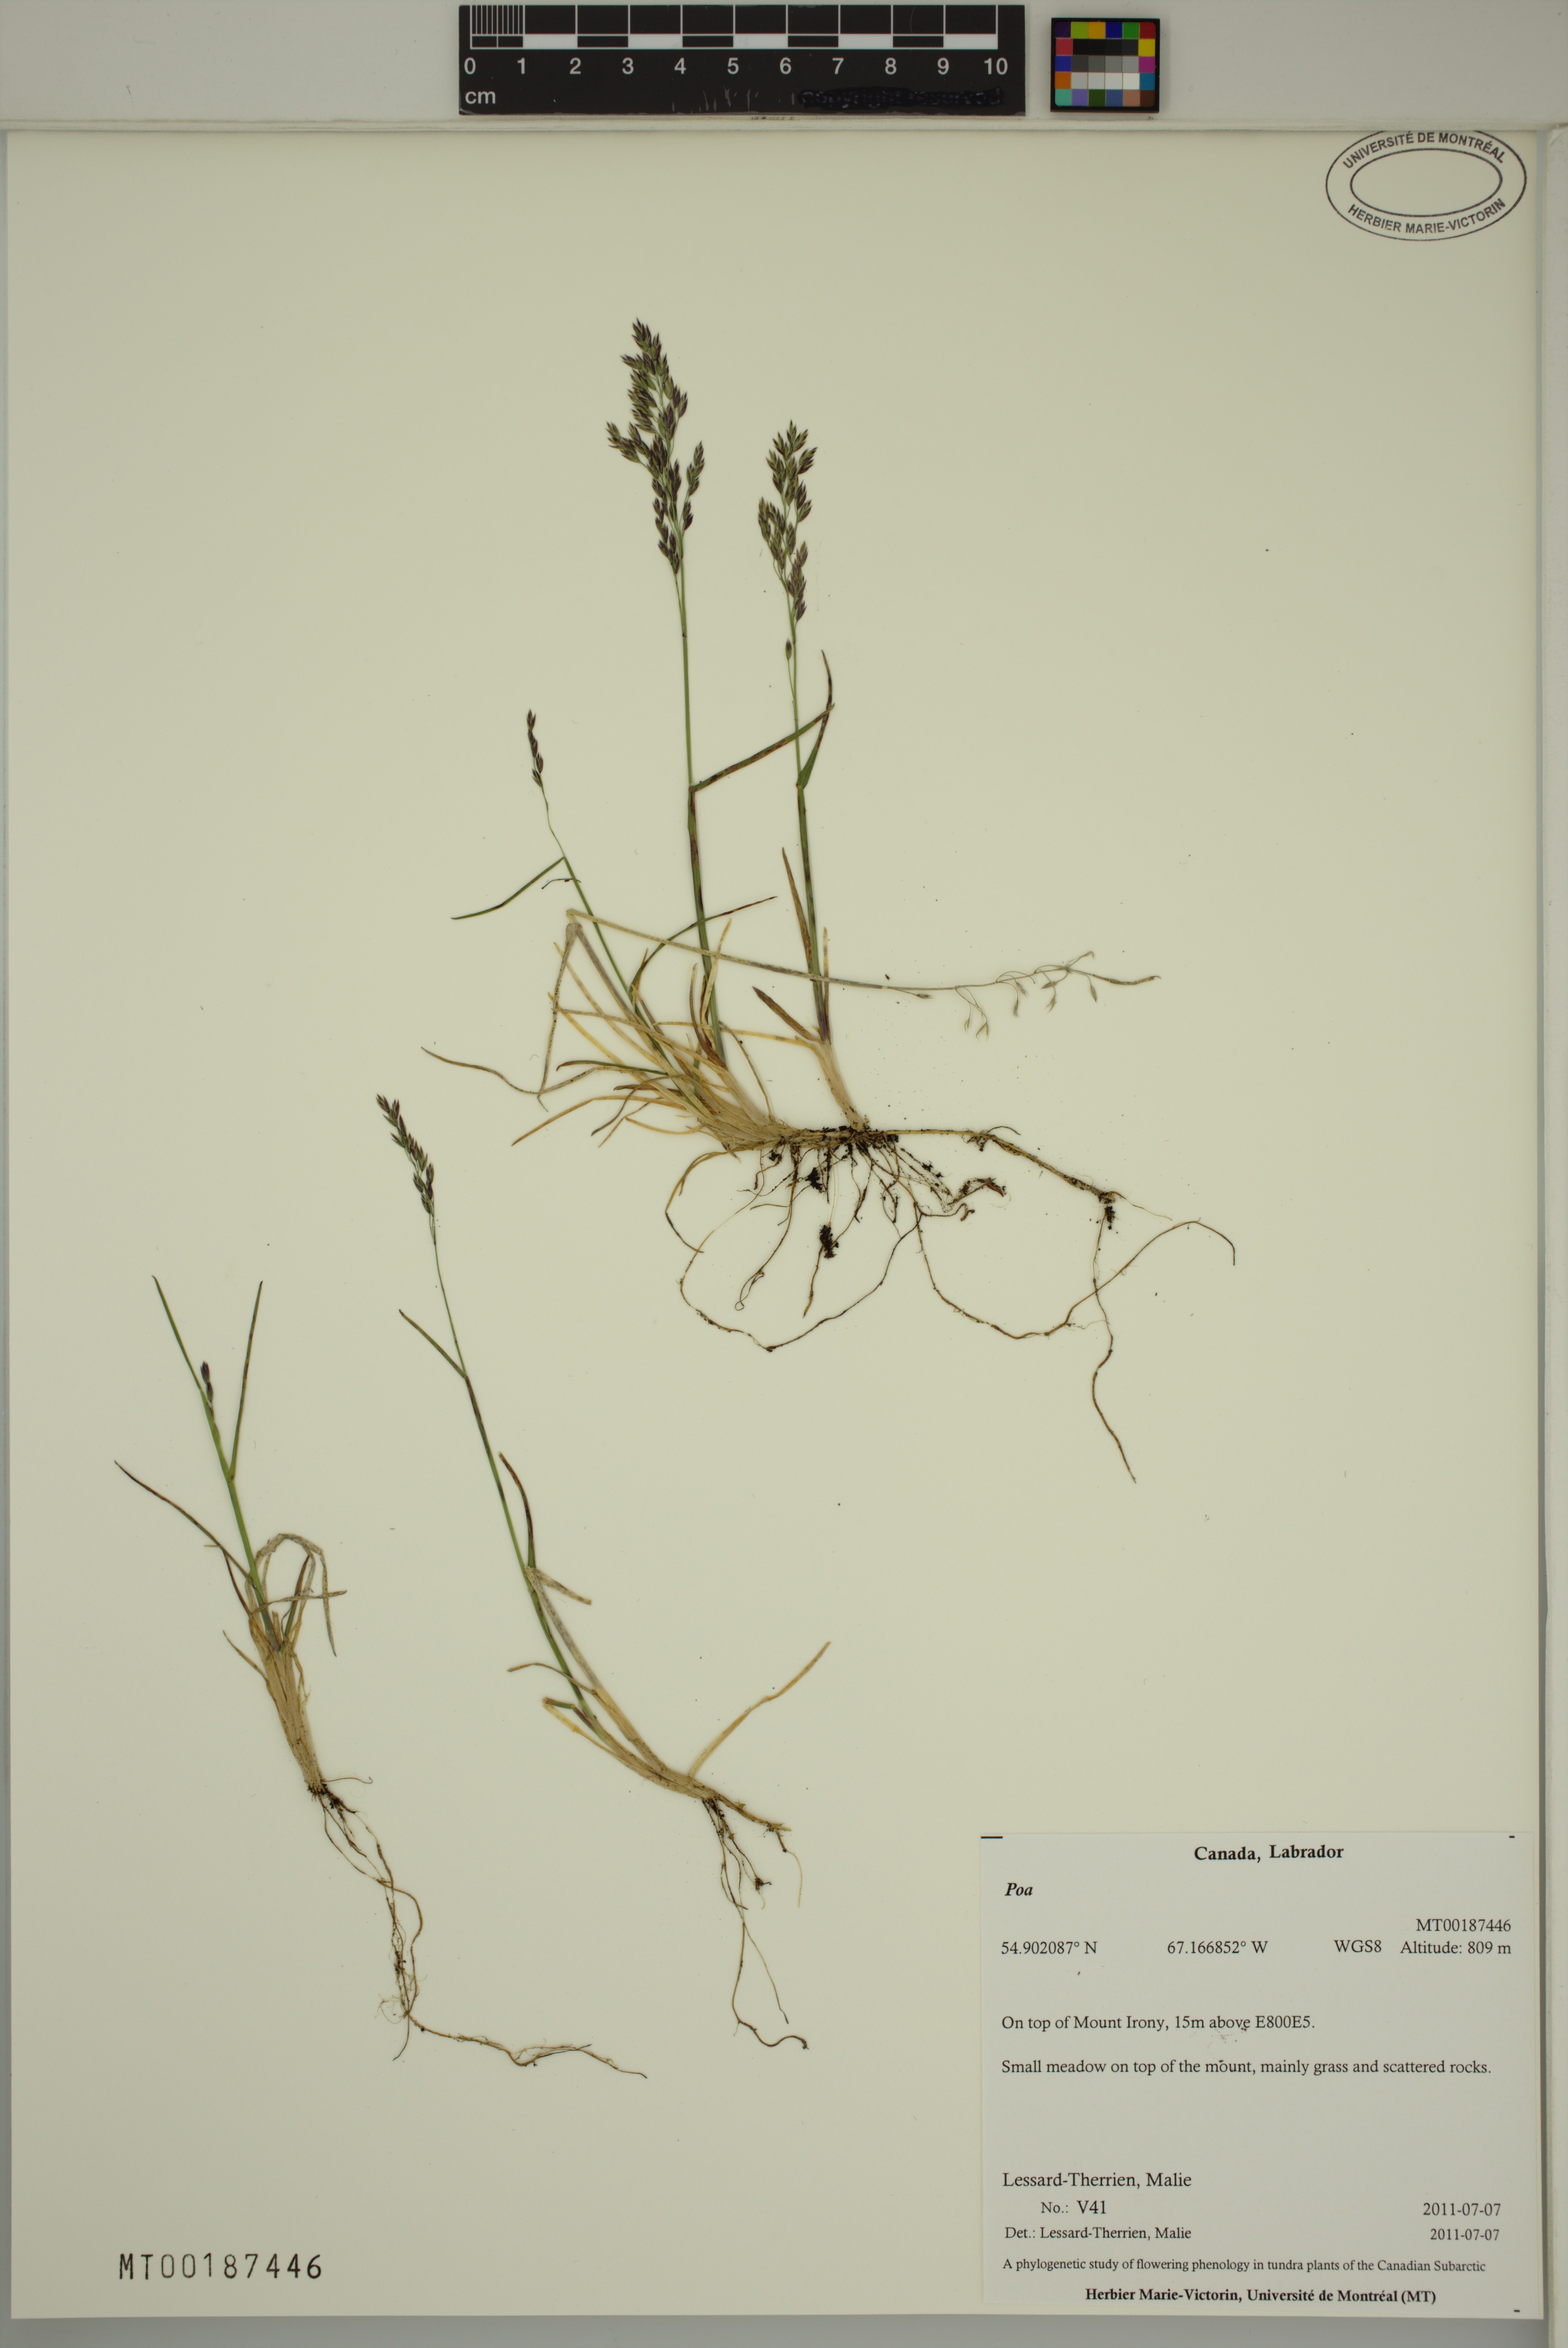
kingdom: Plantae
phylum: Tracheophyta
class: Liliopsida
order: Poales
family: Poaceae
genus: Poa
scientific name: Poa
